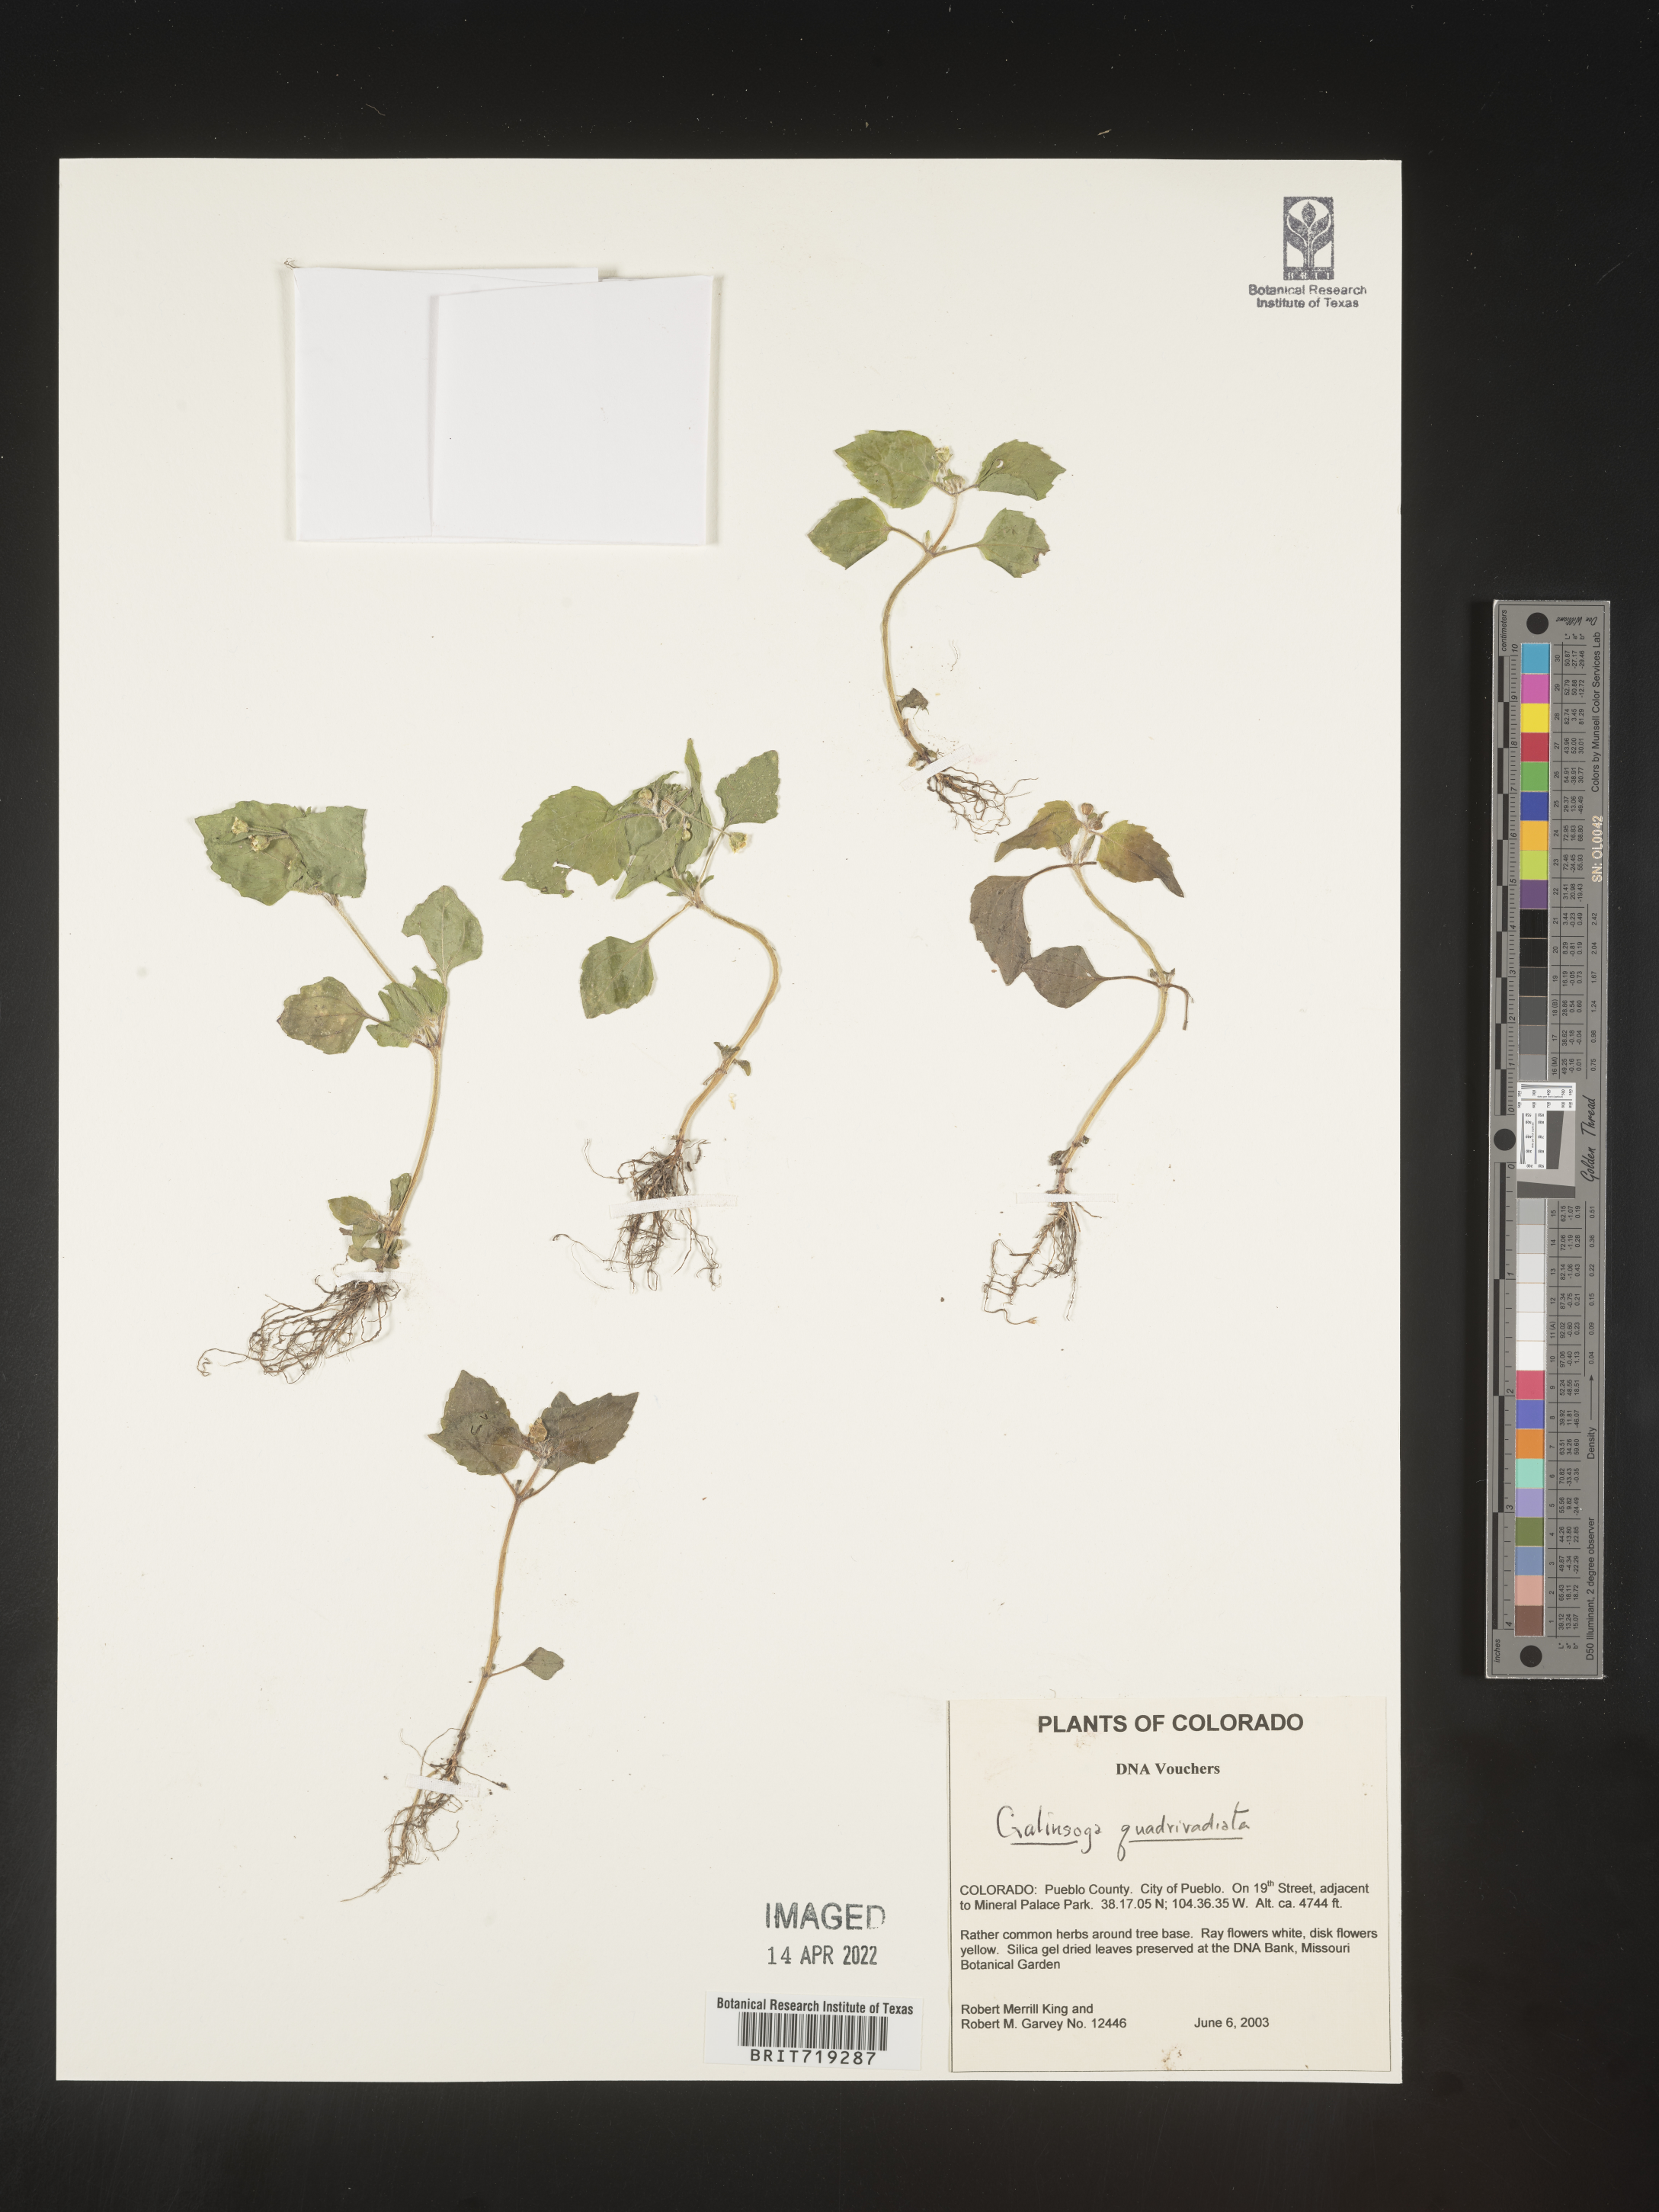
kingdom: Plantae
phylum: Tracheophyta
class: Magnoliopsida
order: Asterales
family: Asteraceae
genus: Galinsoga
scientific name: Galinsoga
